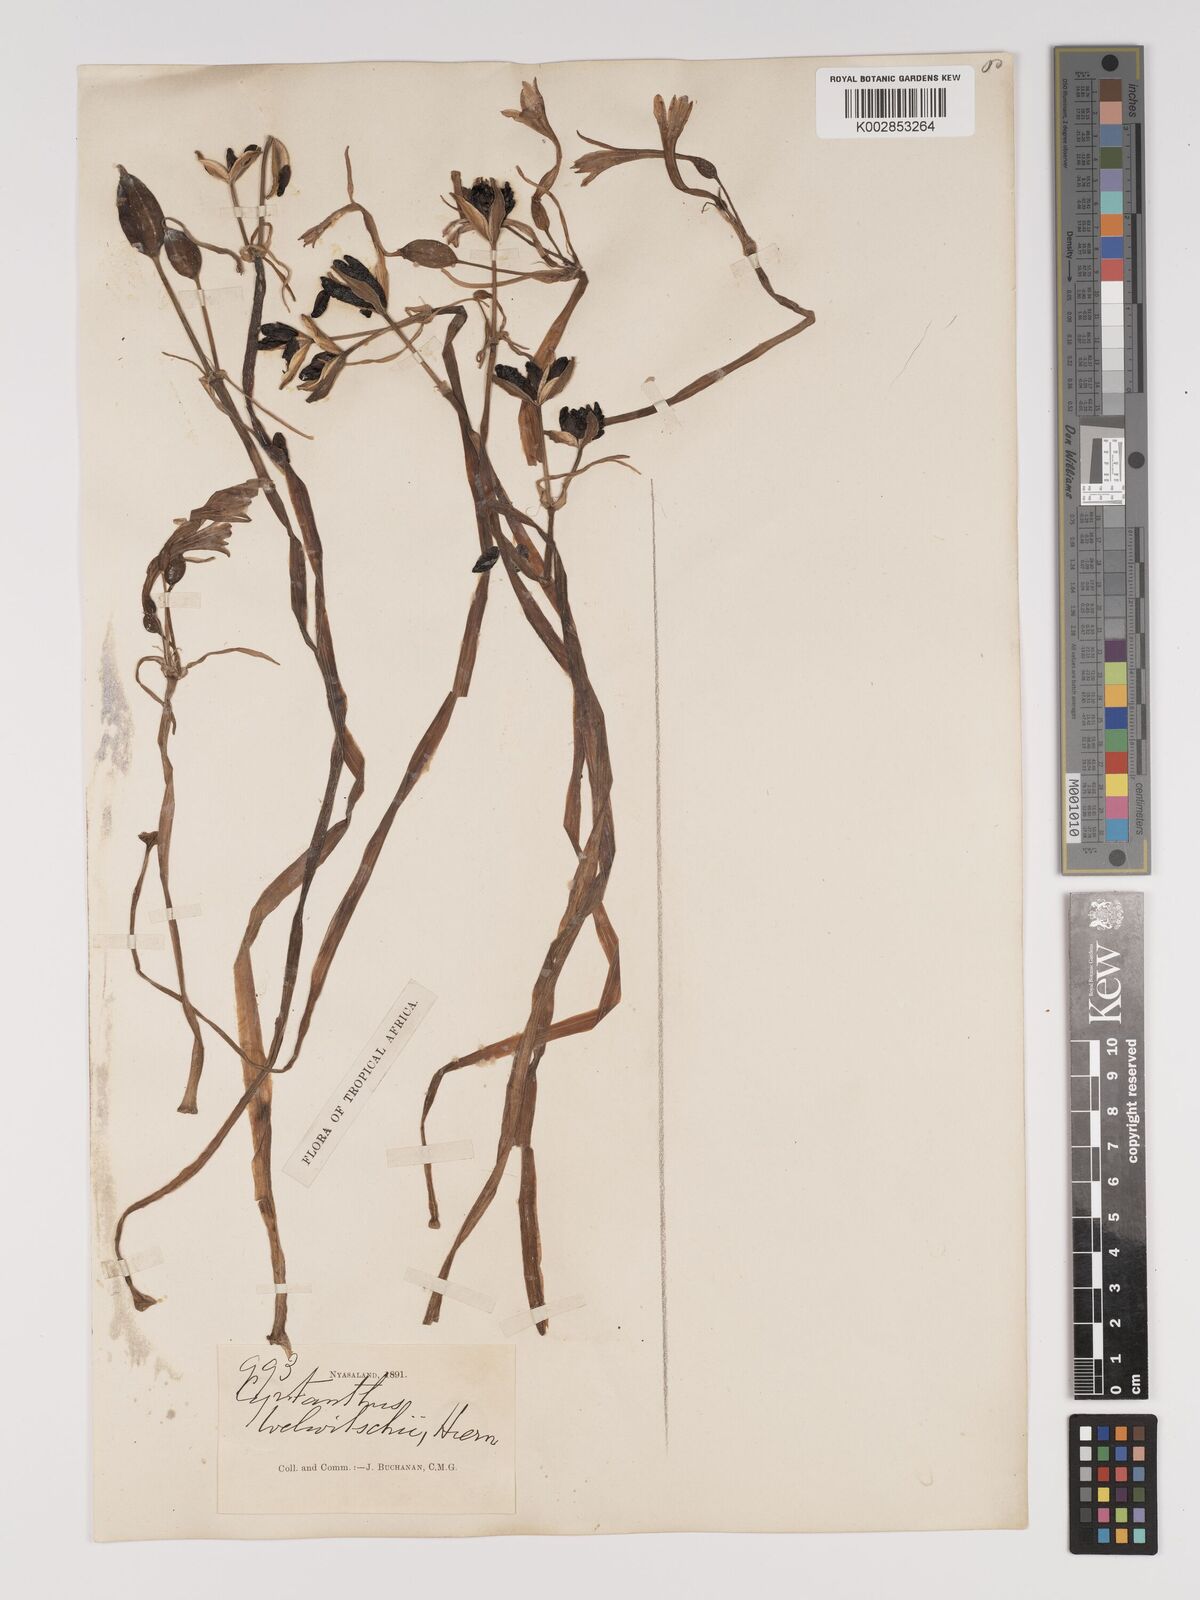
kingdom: Plantae
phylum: Tracheophyta
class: Liliopsida
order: Asparagales
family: Amaryllidaceae
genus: Cyrtanthus
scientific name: Cyrtanthus welwitschii
